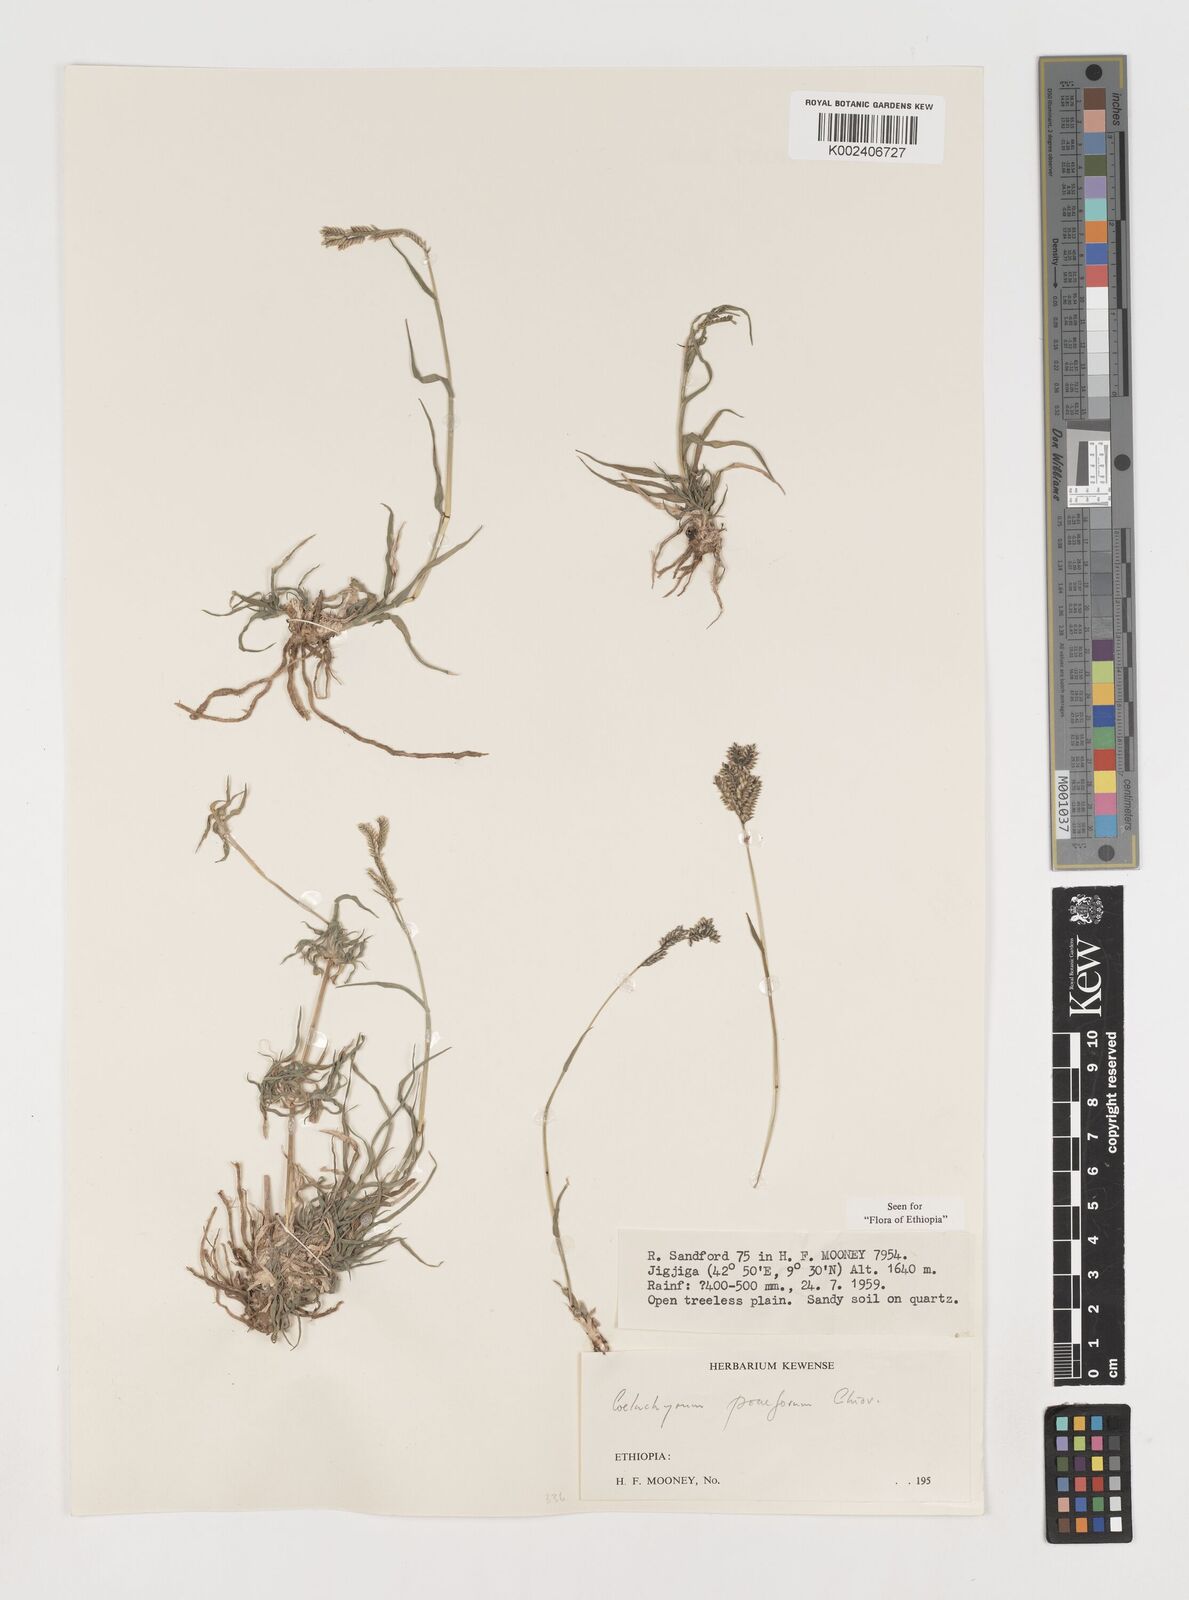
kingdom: Plantae
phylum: Tracheophyta
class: Liliopsida
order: Poales
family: Poaceae
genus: Coelachyrum
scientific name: Coelachyrum poiflorum
